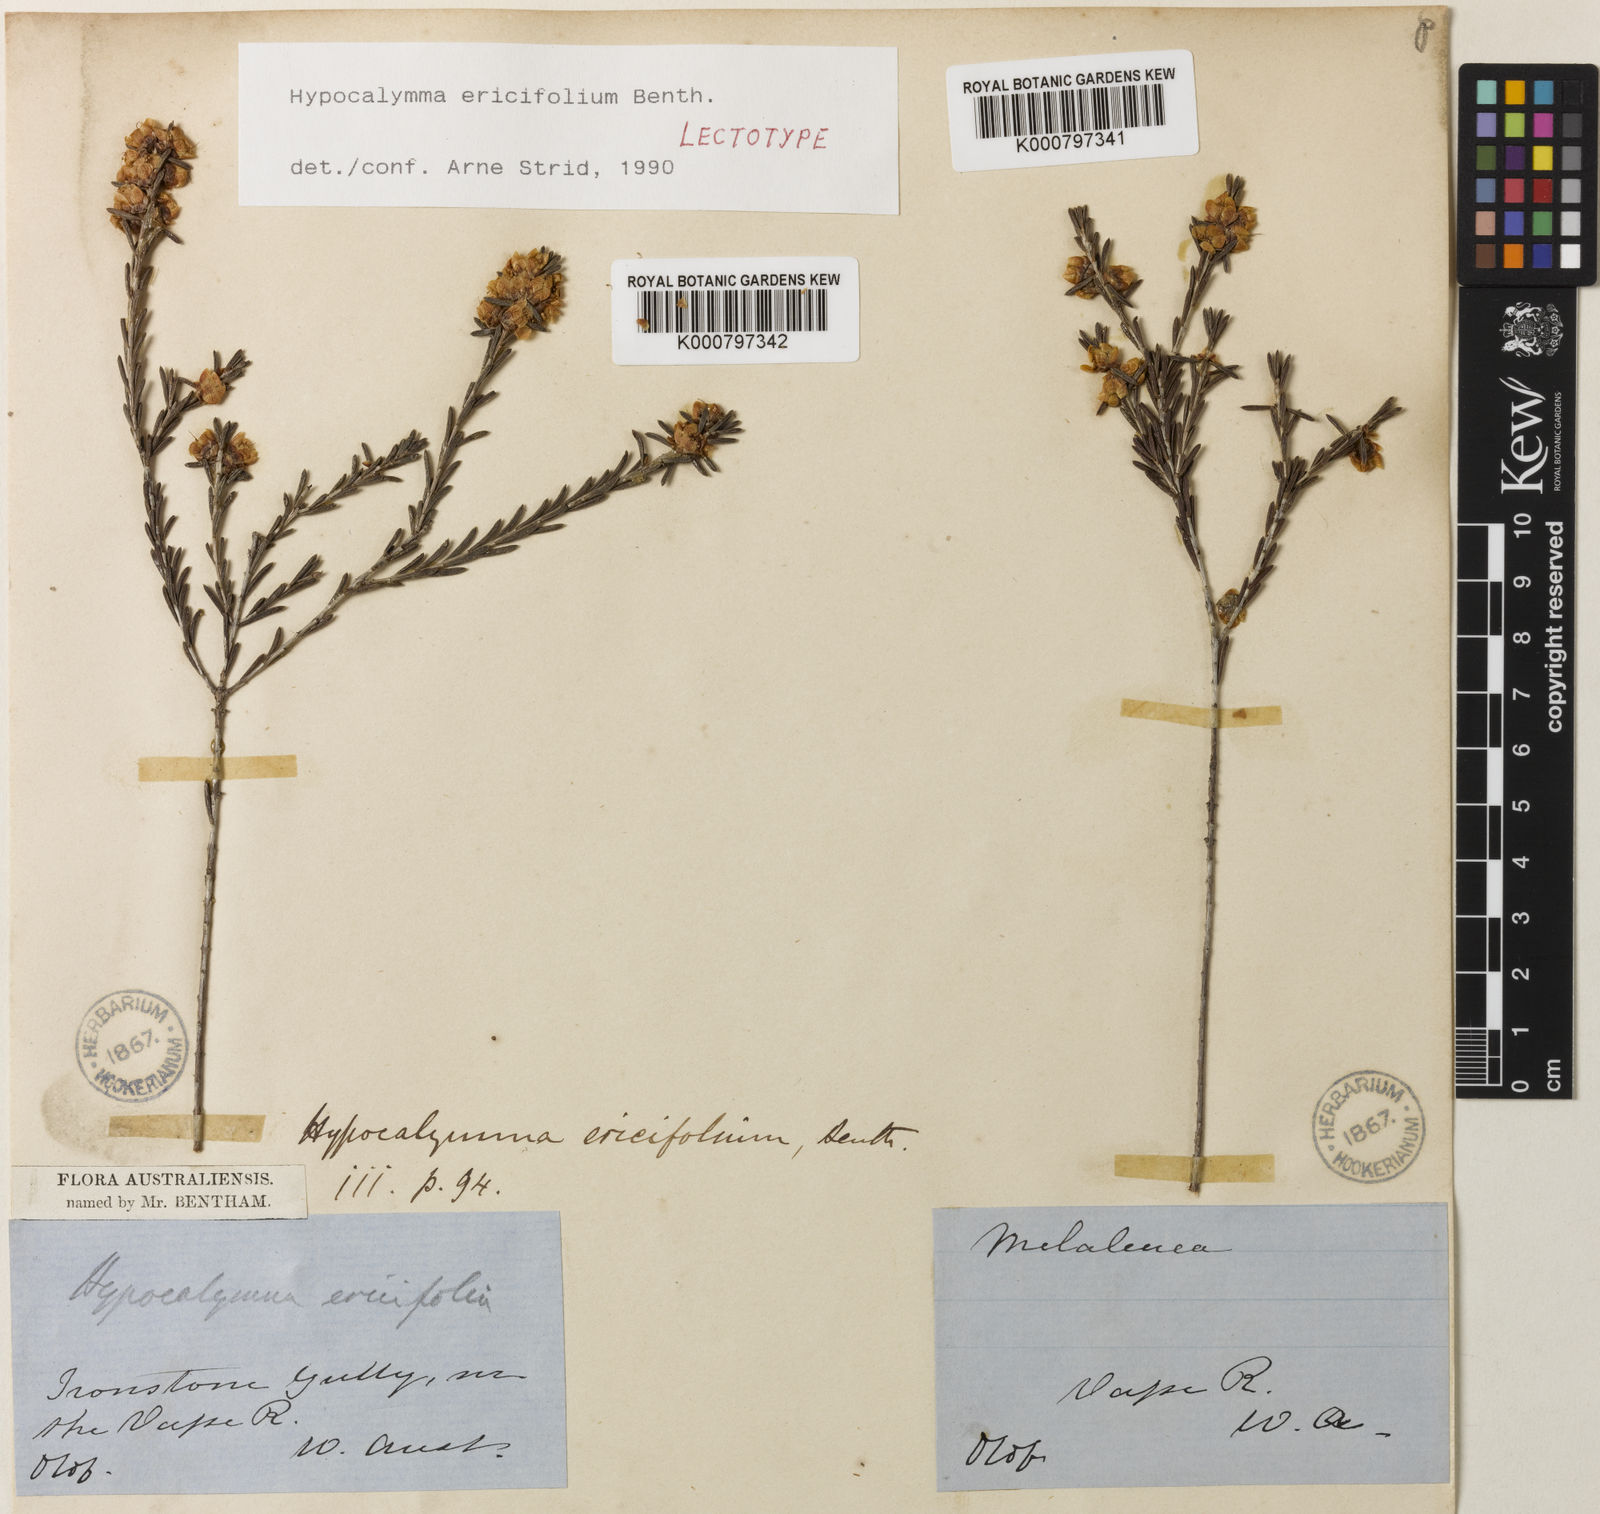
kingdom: Plantae
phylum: Tracheophyta
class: Magnoliopsida
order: Myrtales
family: Myrtaceae
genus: Hypocalymma
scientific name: Hypocalymma ericifolium
